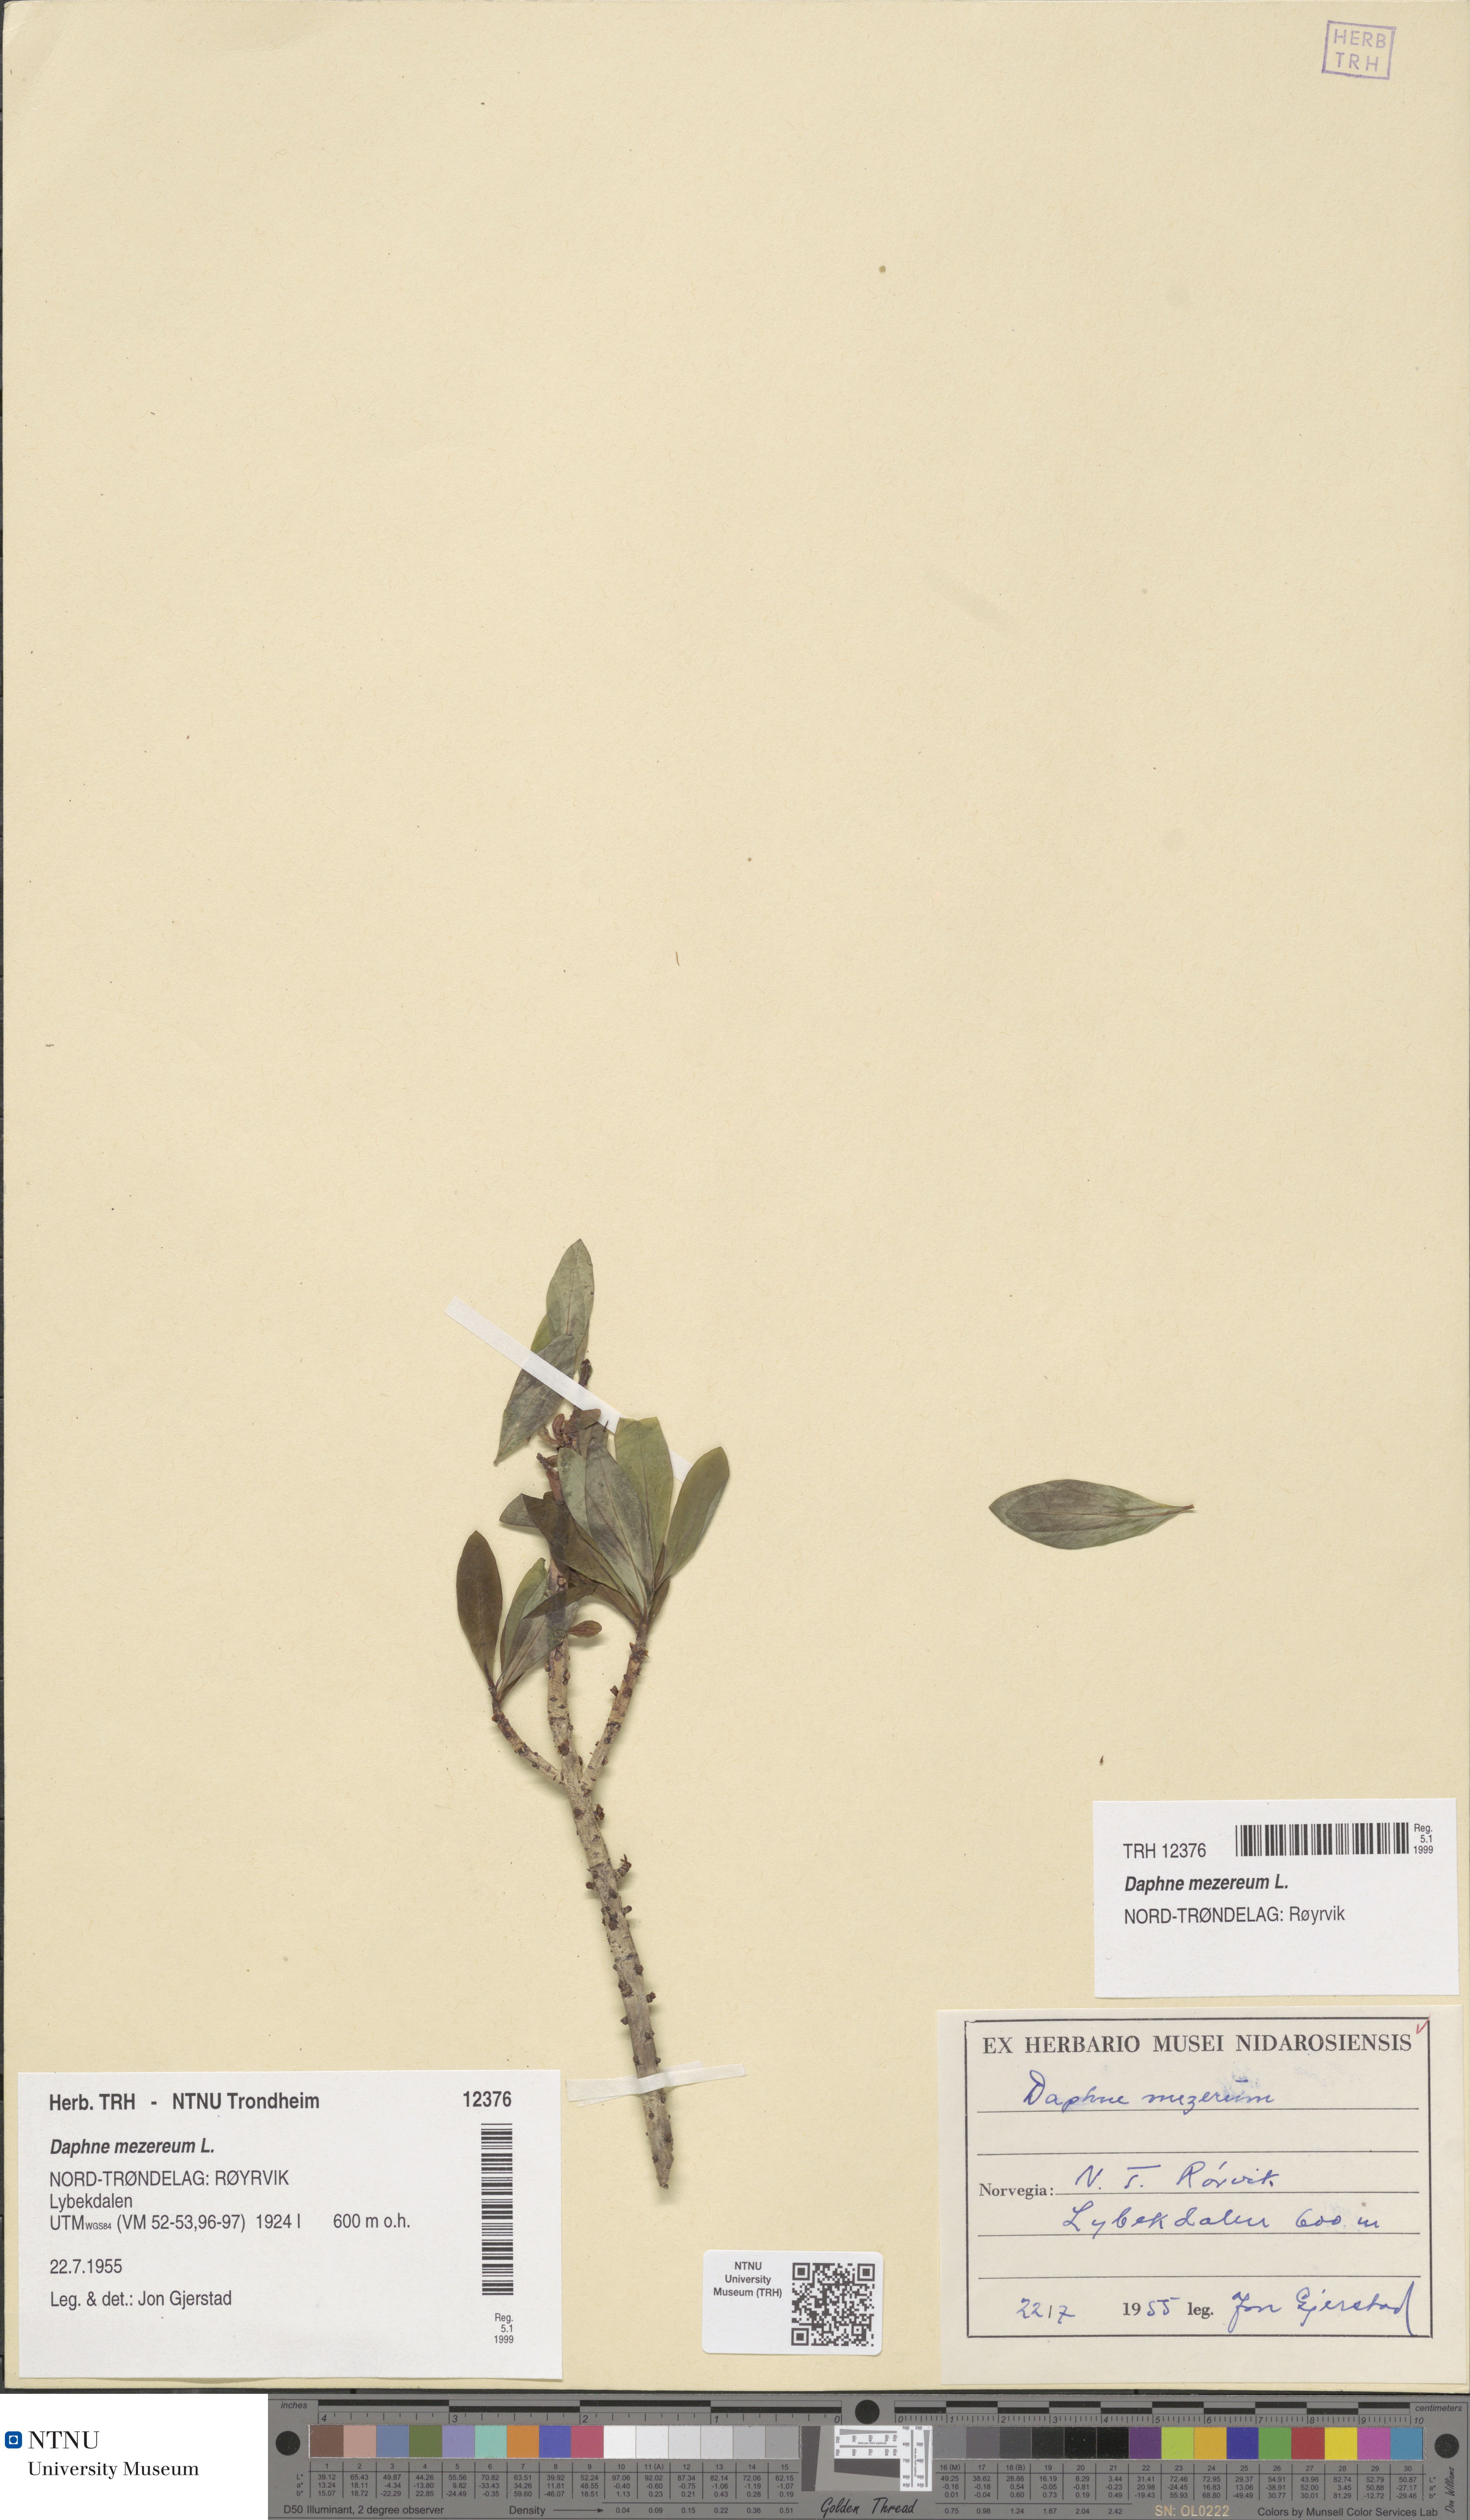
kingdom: Plantae
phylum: Tracheophyta
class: Magnoliopsida
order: Malvales
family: Thymelaeaceae
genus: Daphne
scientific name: Daphne mezereum
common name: Mezereon
